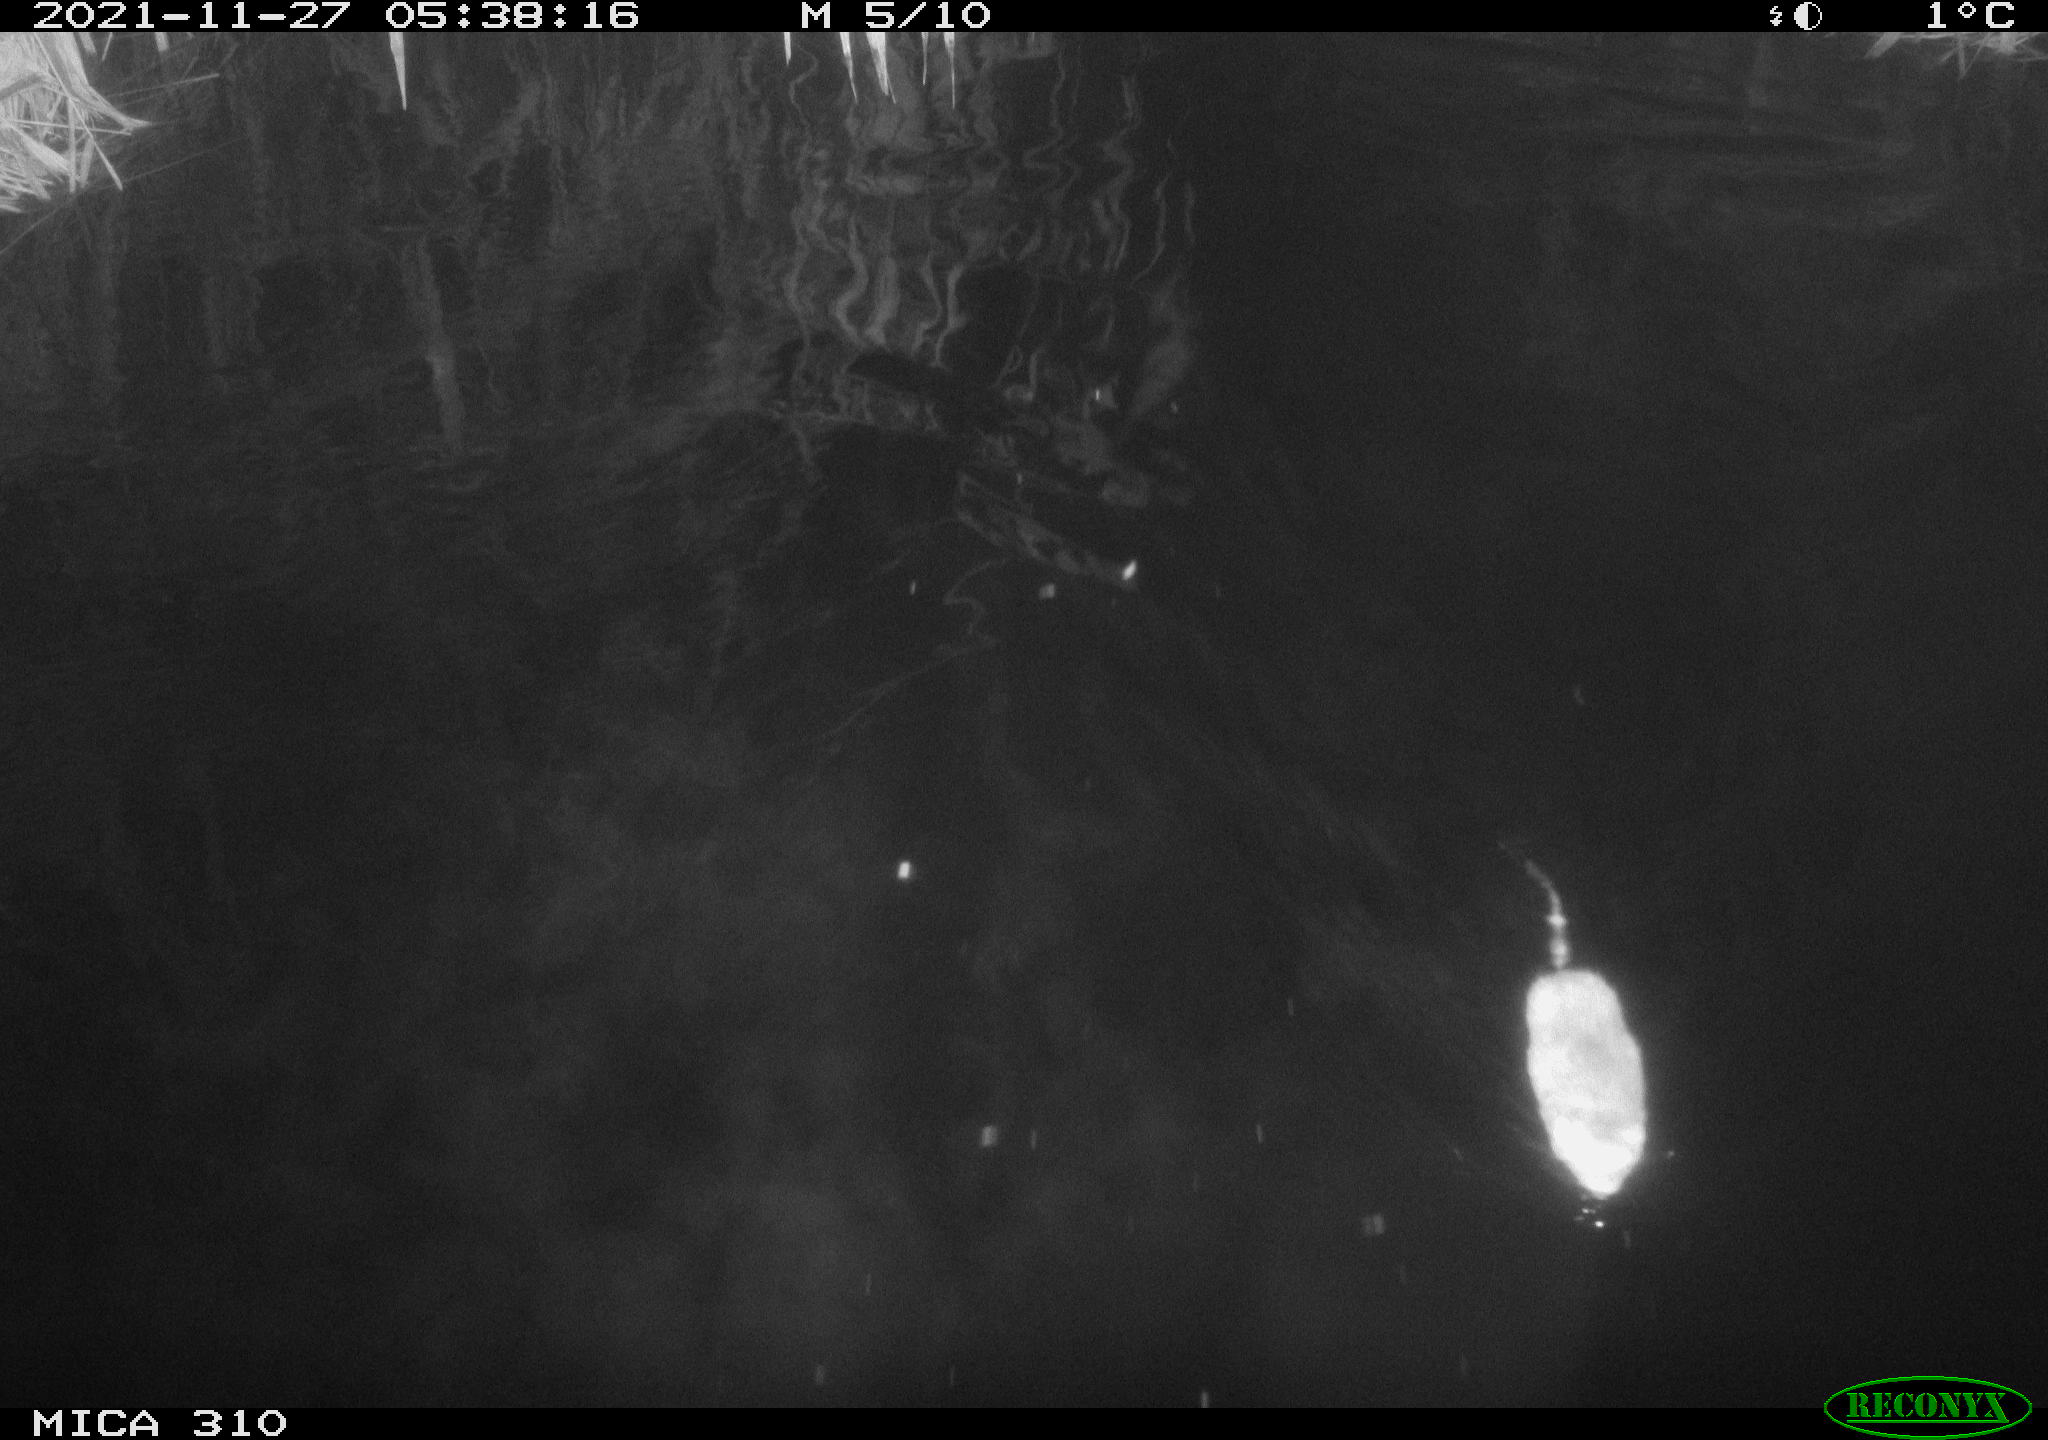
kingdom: Animalia
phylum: Chordata
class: Mammalia
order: Rodentia
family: Cricetidae
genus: Ondatra
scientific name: Ondatra zibethicus
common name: Muskrat
